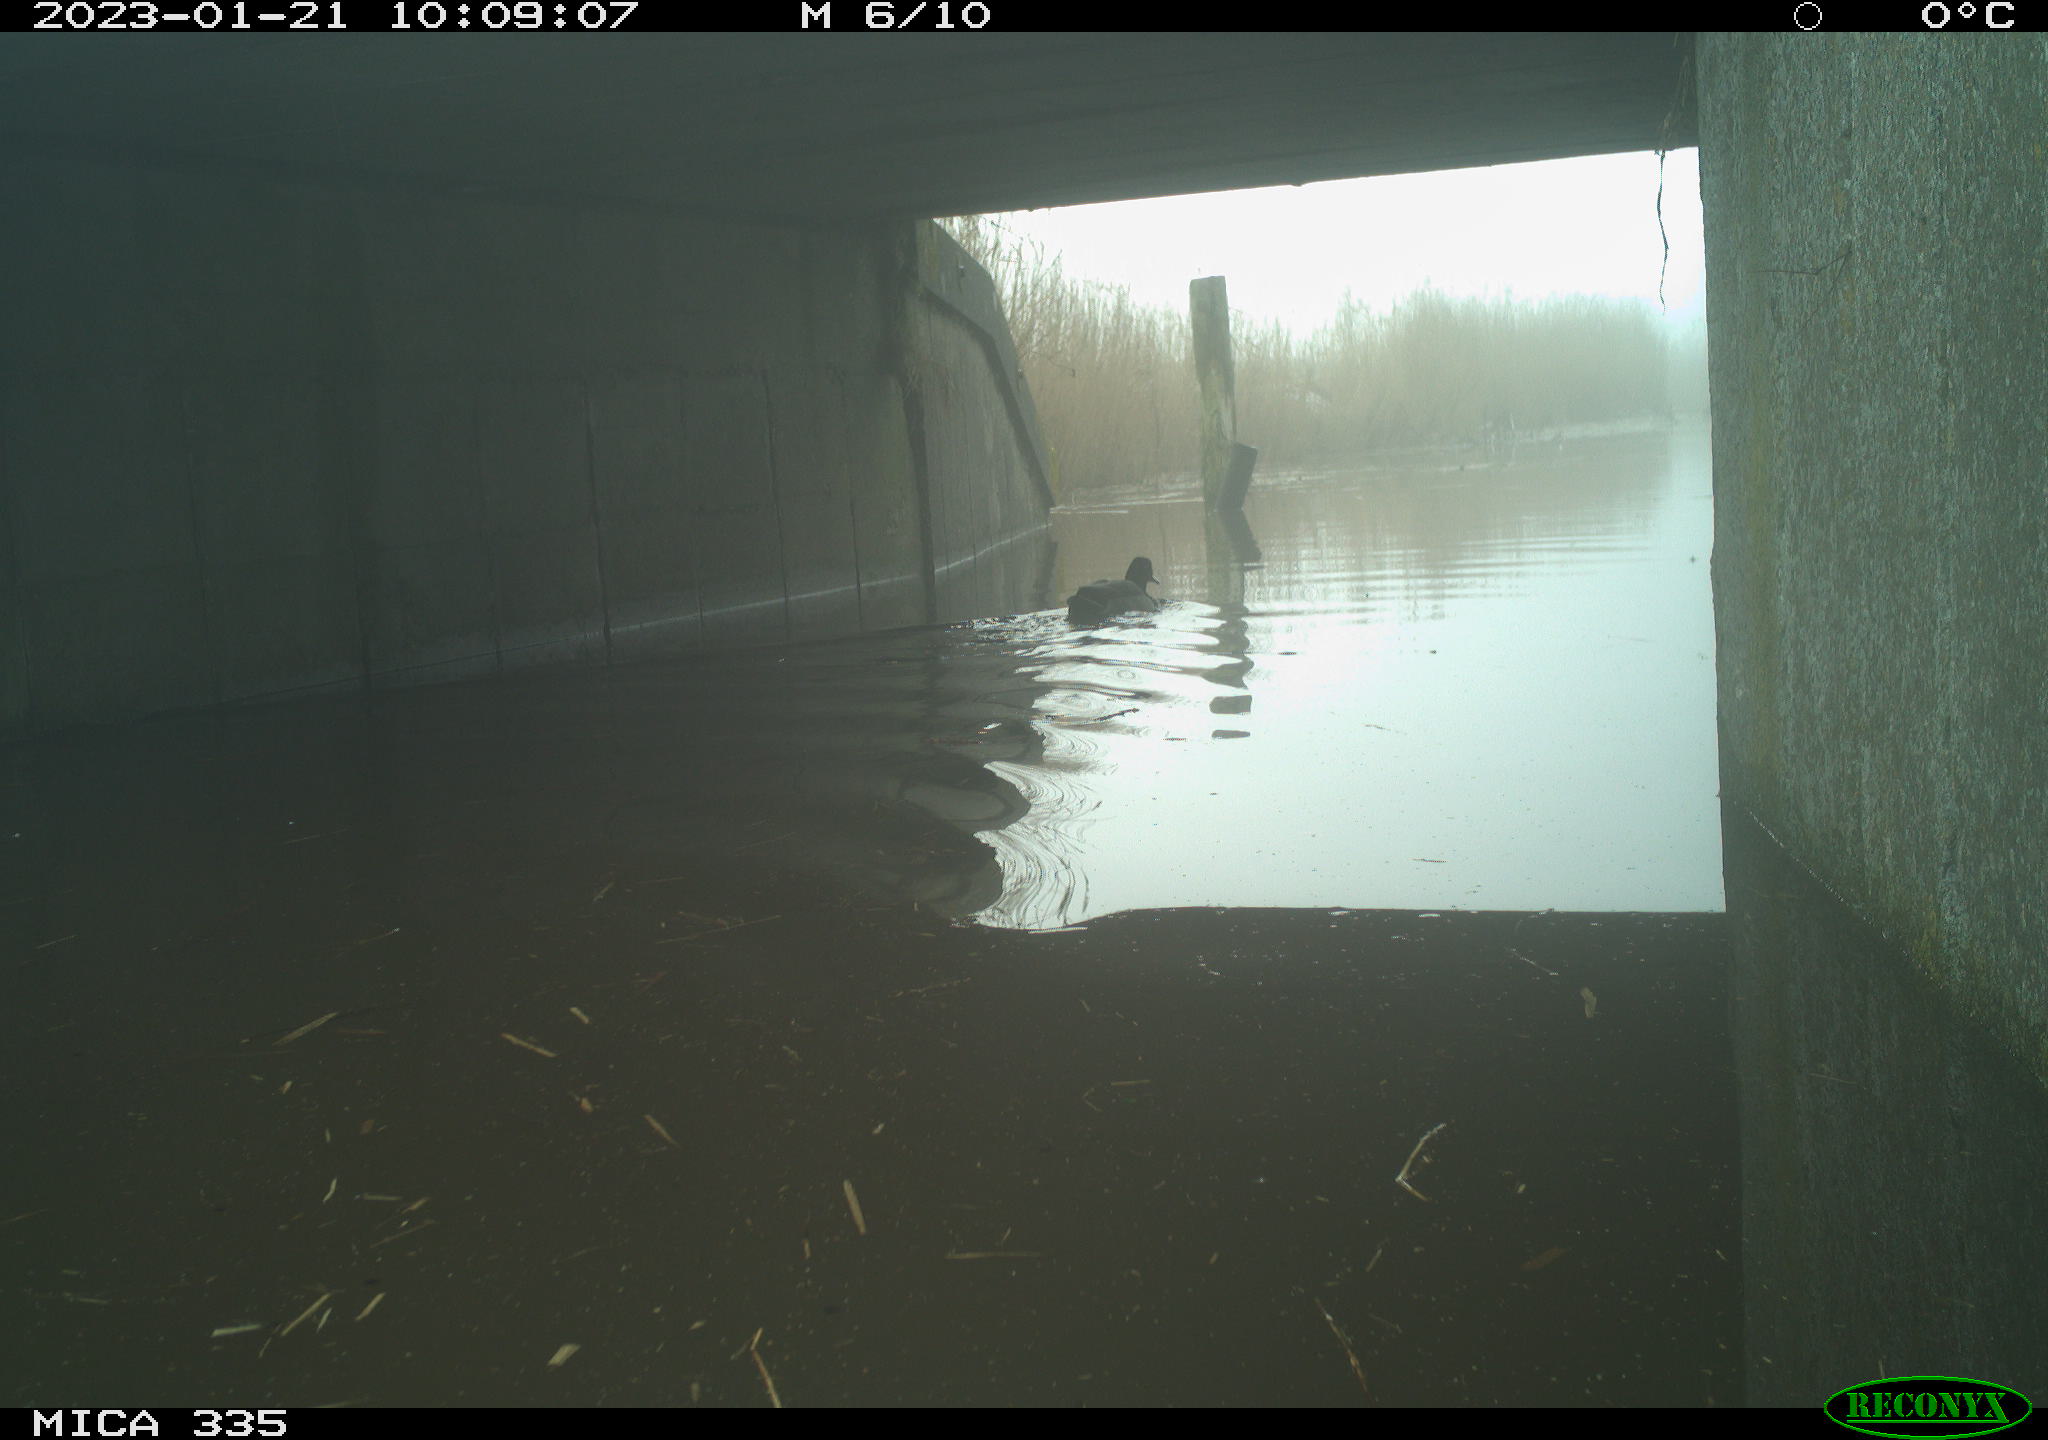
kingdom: Animalia
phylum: Chordata
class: Aves
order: Anseriformes
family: Anatidae
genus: Anas
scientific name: Anas
